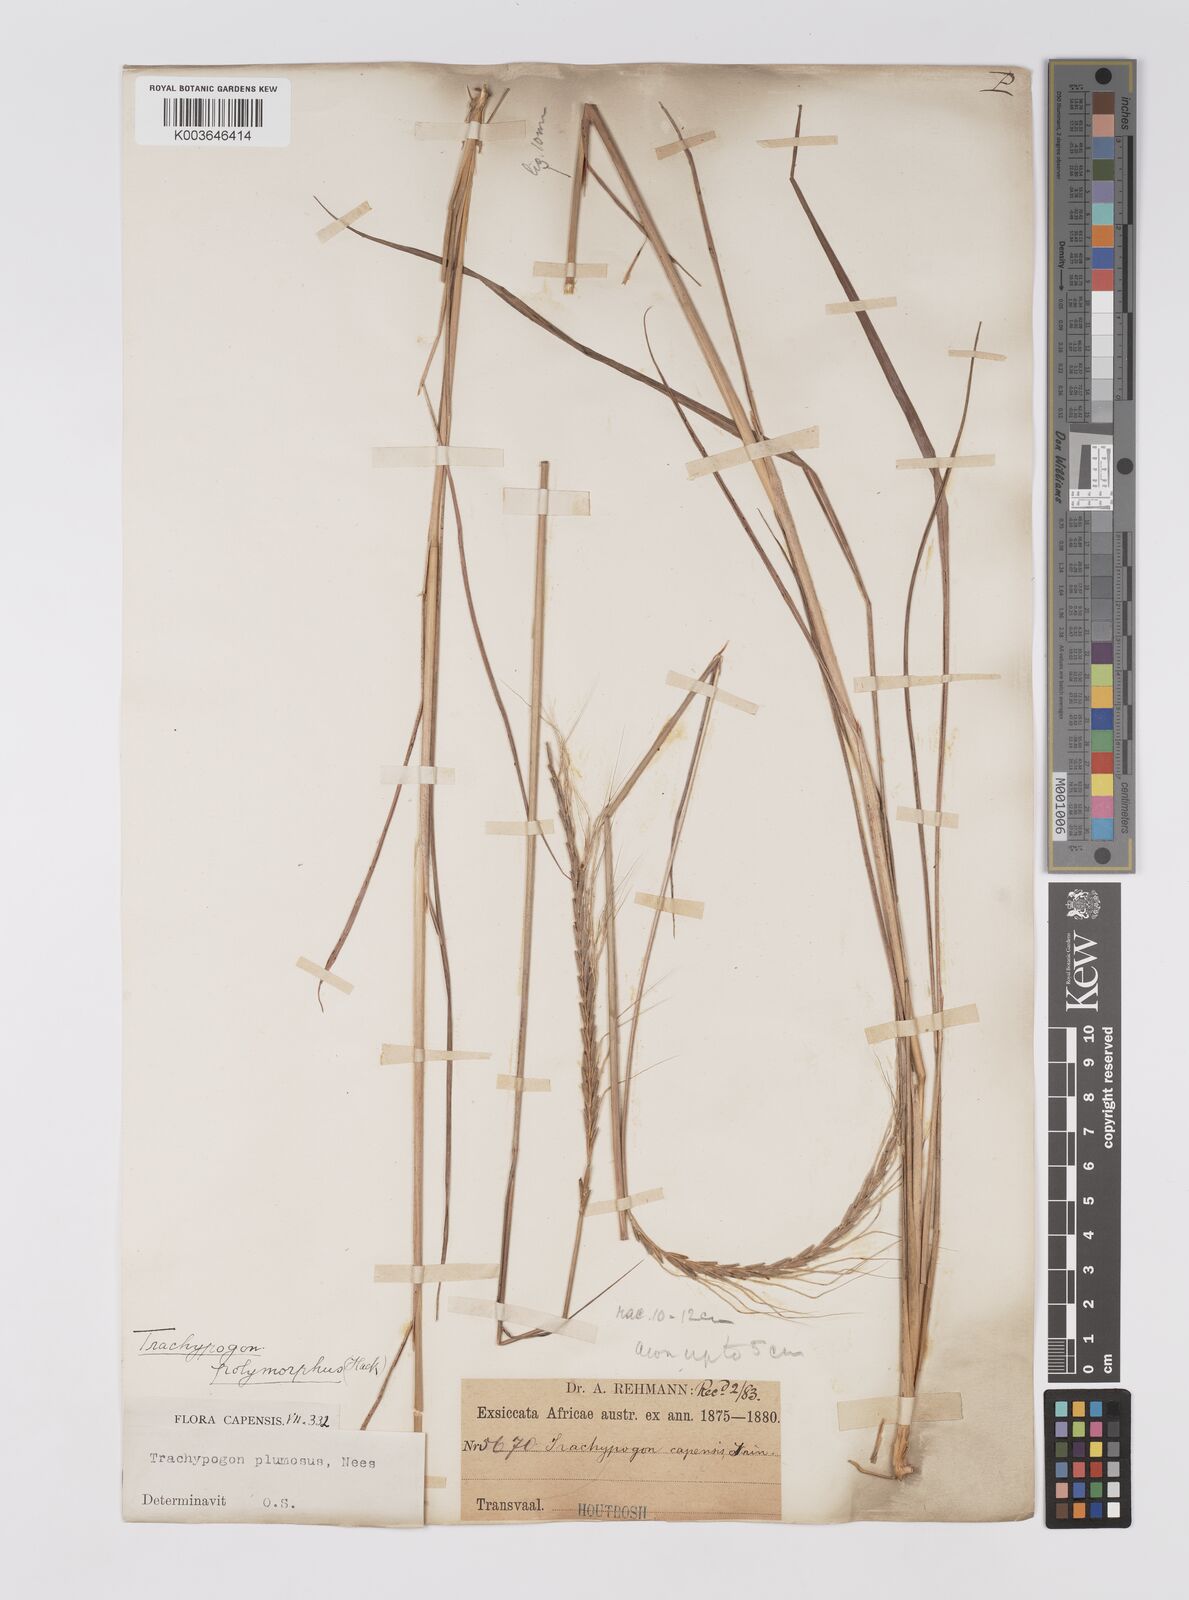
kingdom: Plantae
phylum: Tracheophyta
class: Liliopsida
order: Poales
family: Poaceae
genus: Trachypogon
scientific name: Trachypogon spicatus
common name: Crinkle-awn
